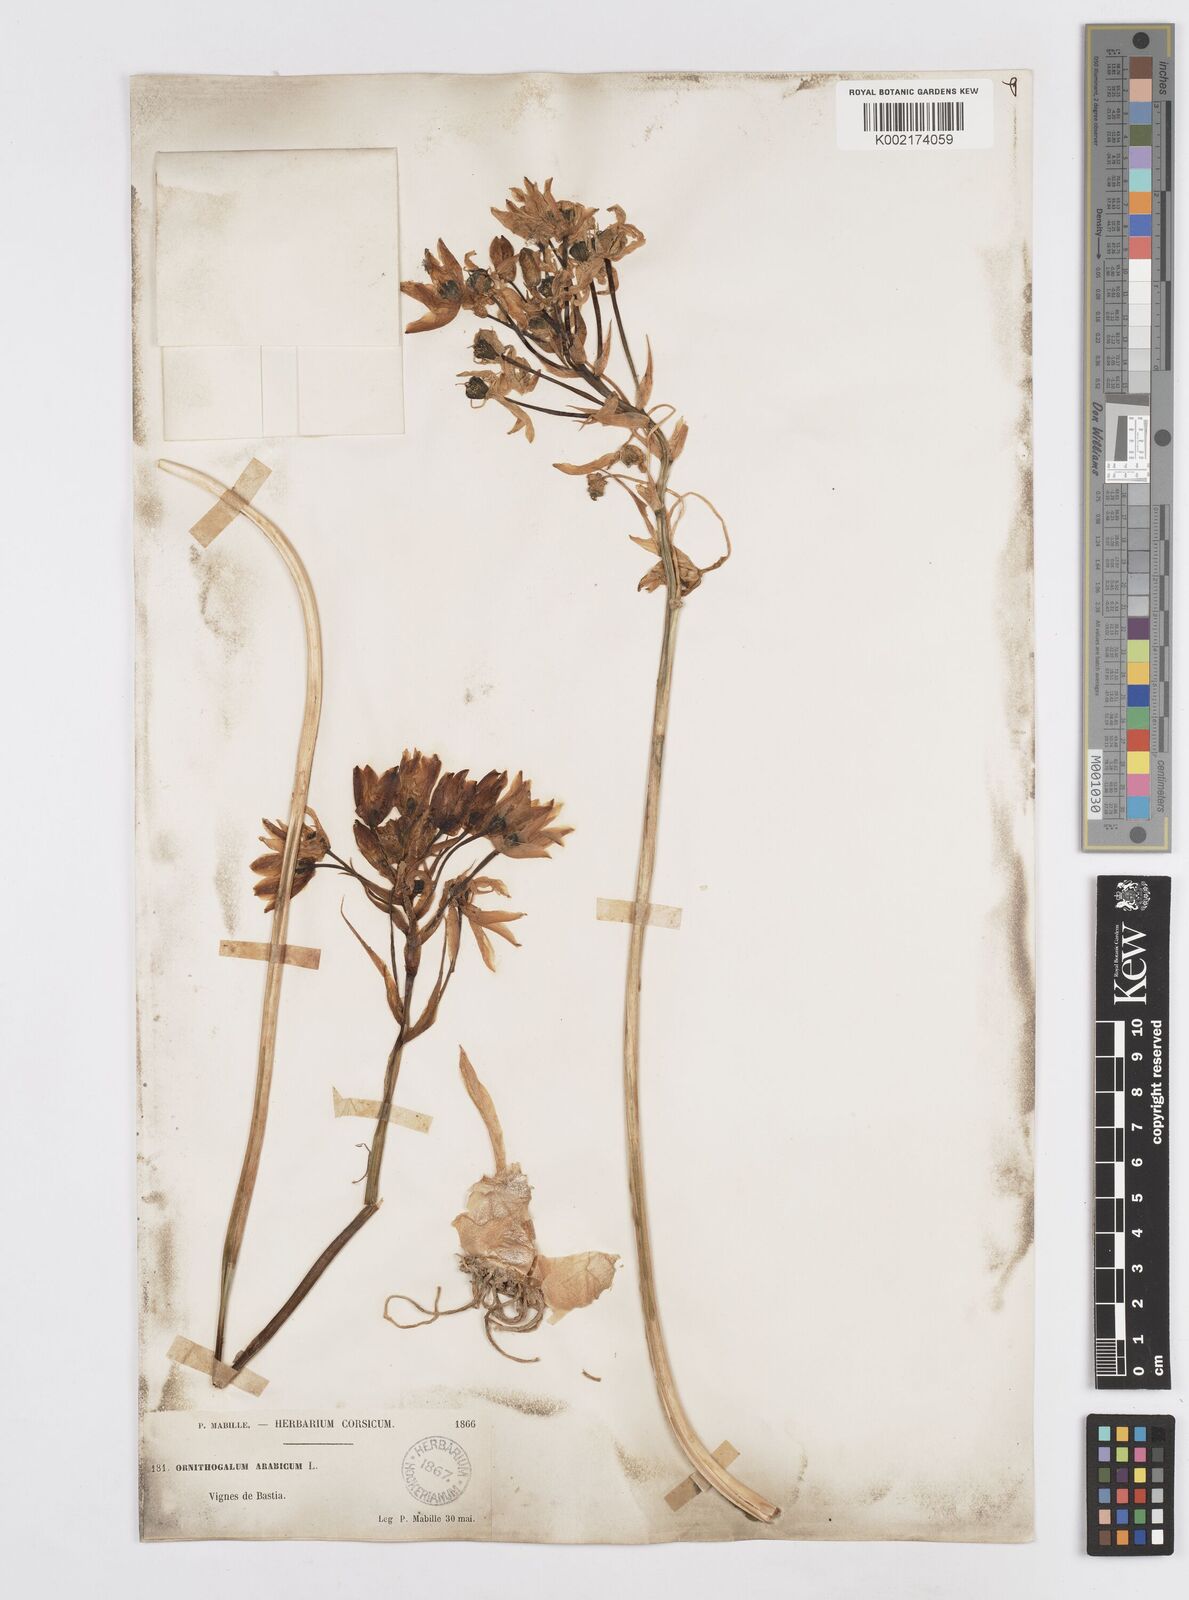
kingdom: Plantae
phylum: Tracheophyta
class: Liliopsida
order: Asparagales
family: Asparagaceae
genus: Ornithogalum
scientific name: Ornithogalum arabicum
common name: Arabian starflower
